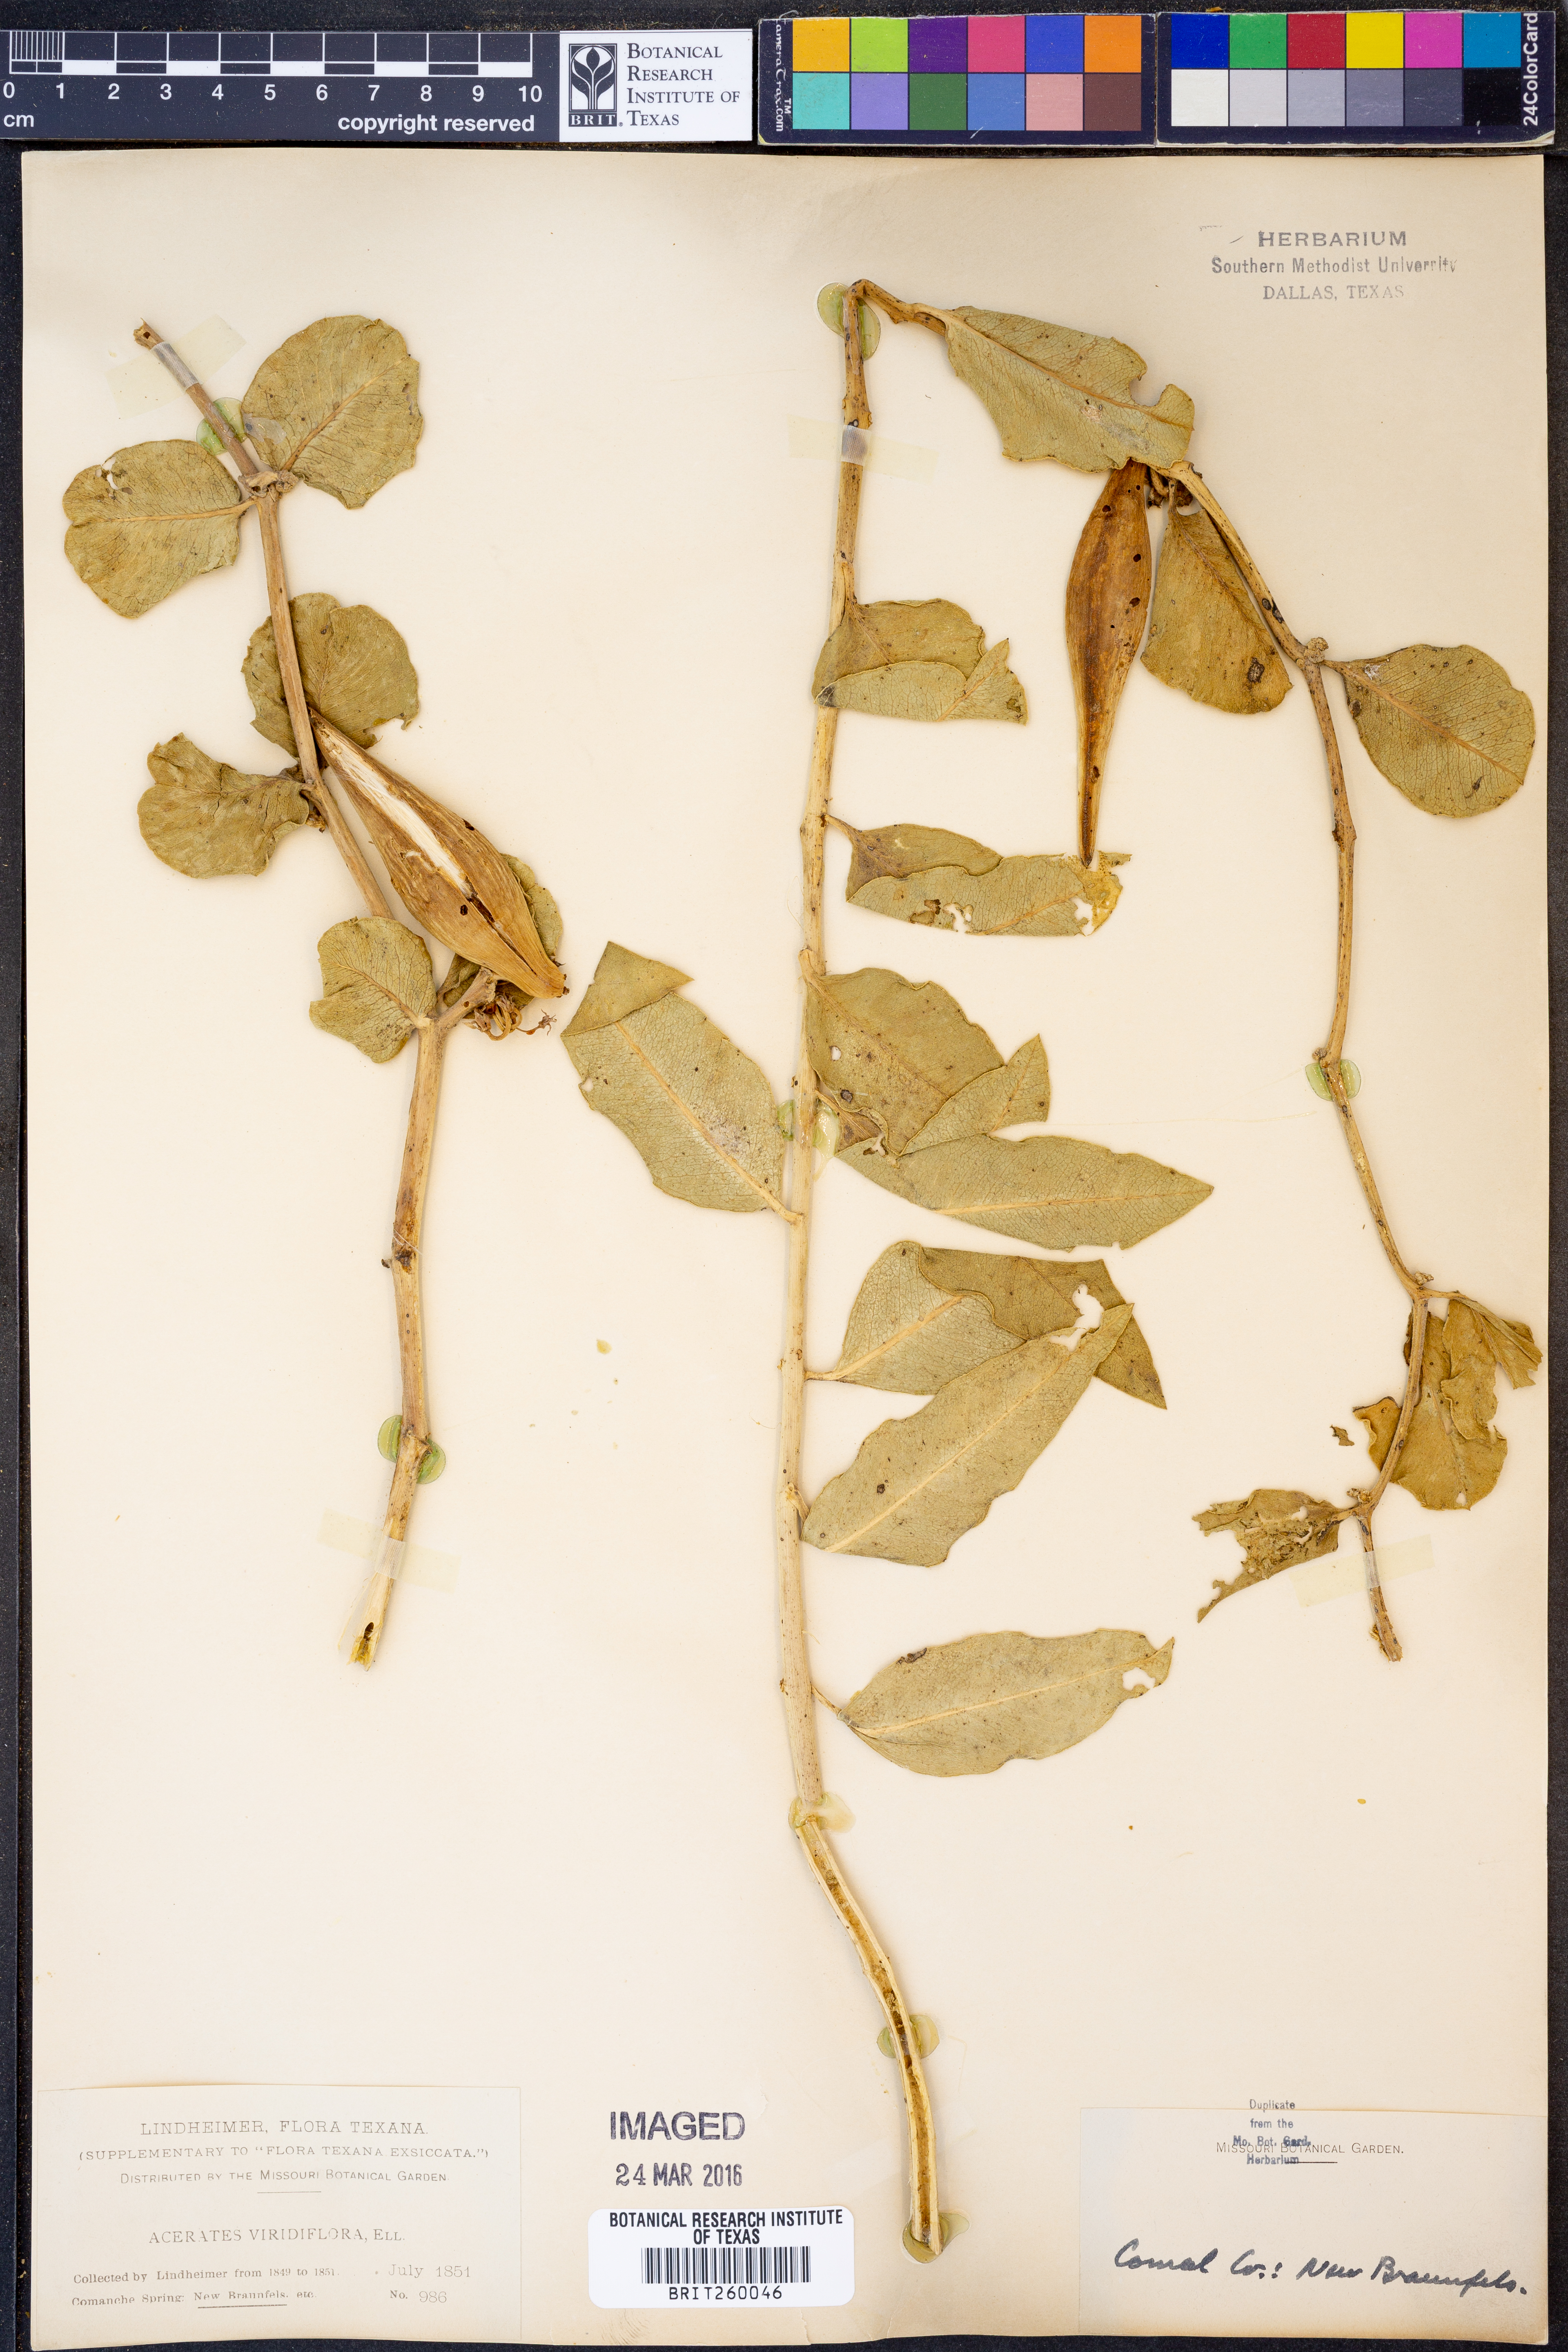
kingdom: Plantae
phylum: Tracheophyta
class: Magnoliopsida
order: Gentianales
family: Apocynaceae
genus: Asclepias
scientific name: Asclepias viridiflora
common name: Green comet milkweed
